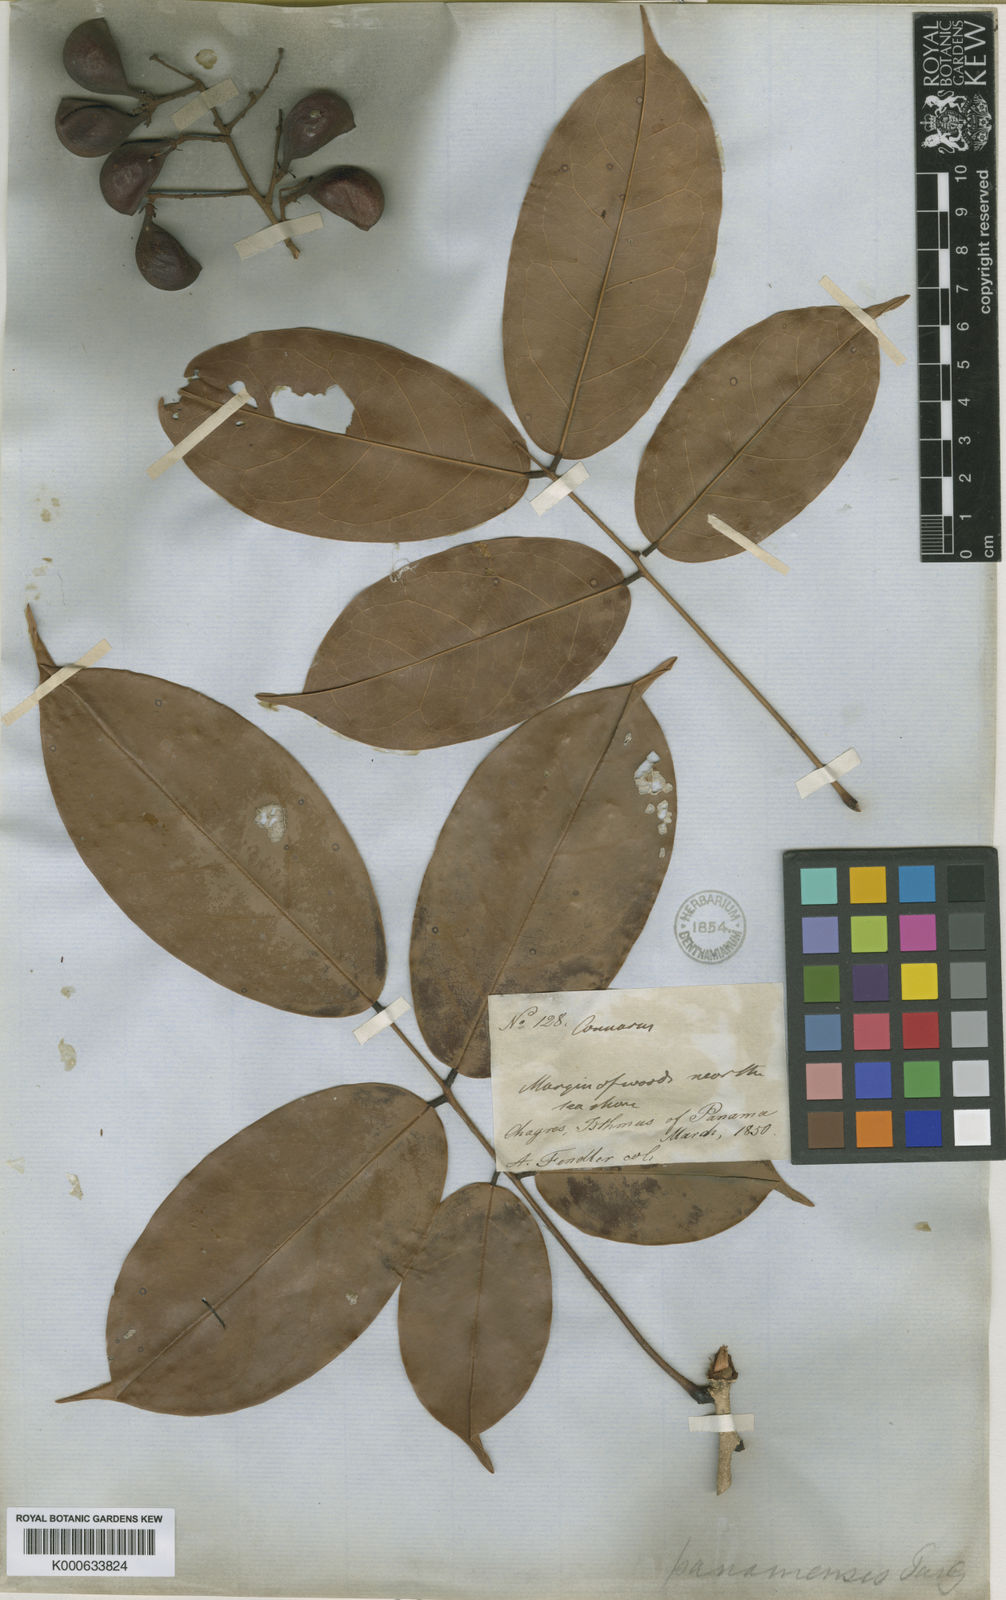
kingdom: Plantae
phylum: Tracheophyta
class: Magnoliopsida
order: Oxalidales
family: Connaraceae
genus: Connarus
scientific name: Connarus turczaninowii
